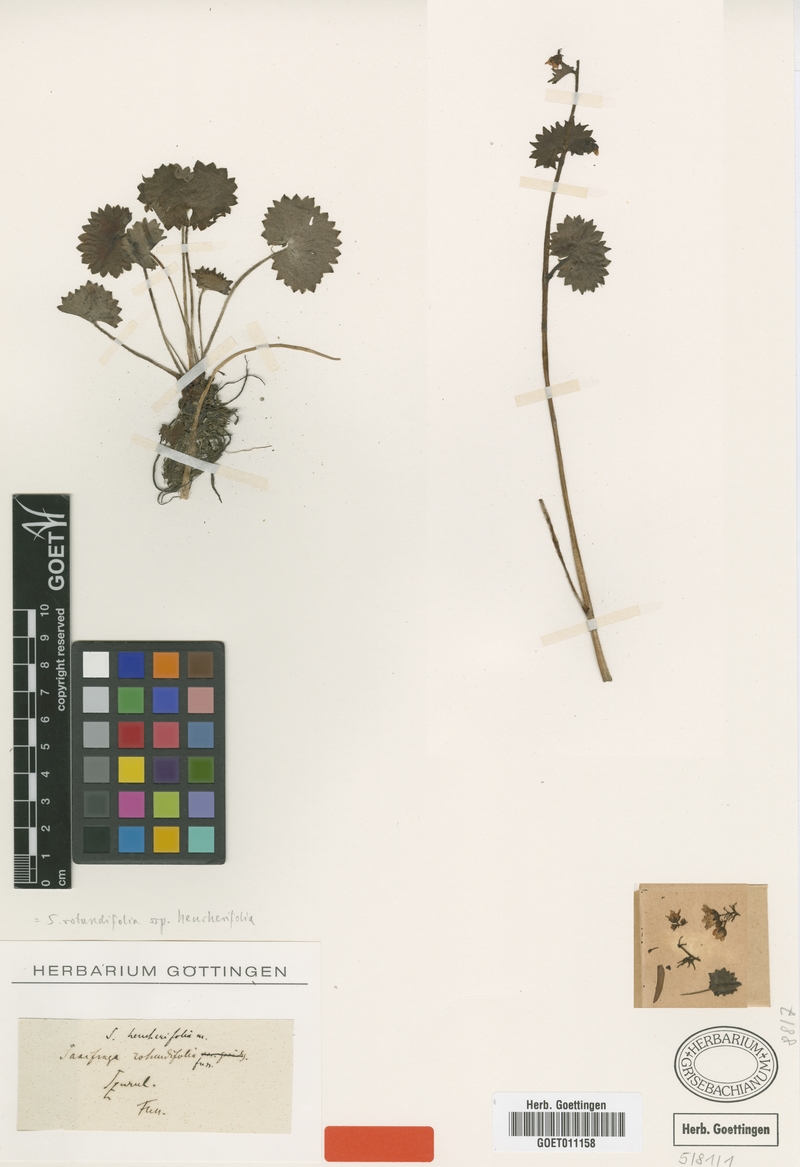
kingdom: Plantae
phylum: Tracheophyta
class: Magnoliopsida
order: Saxifragales
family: Saxifragaceae
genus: Saxifraga
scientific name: Saxifraga rotundifolia
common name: Round-leaved saxifrage
